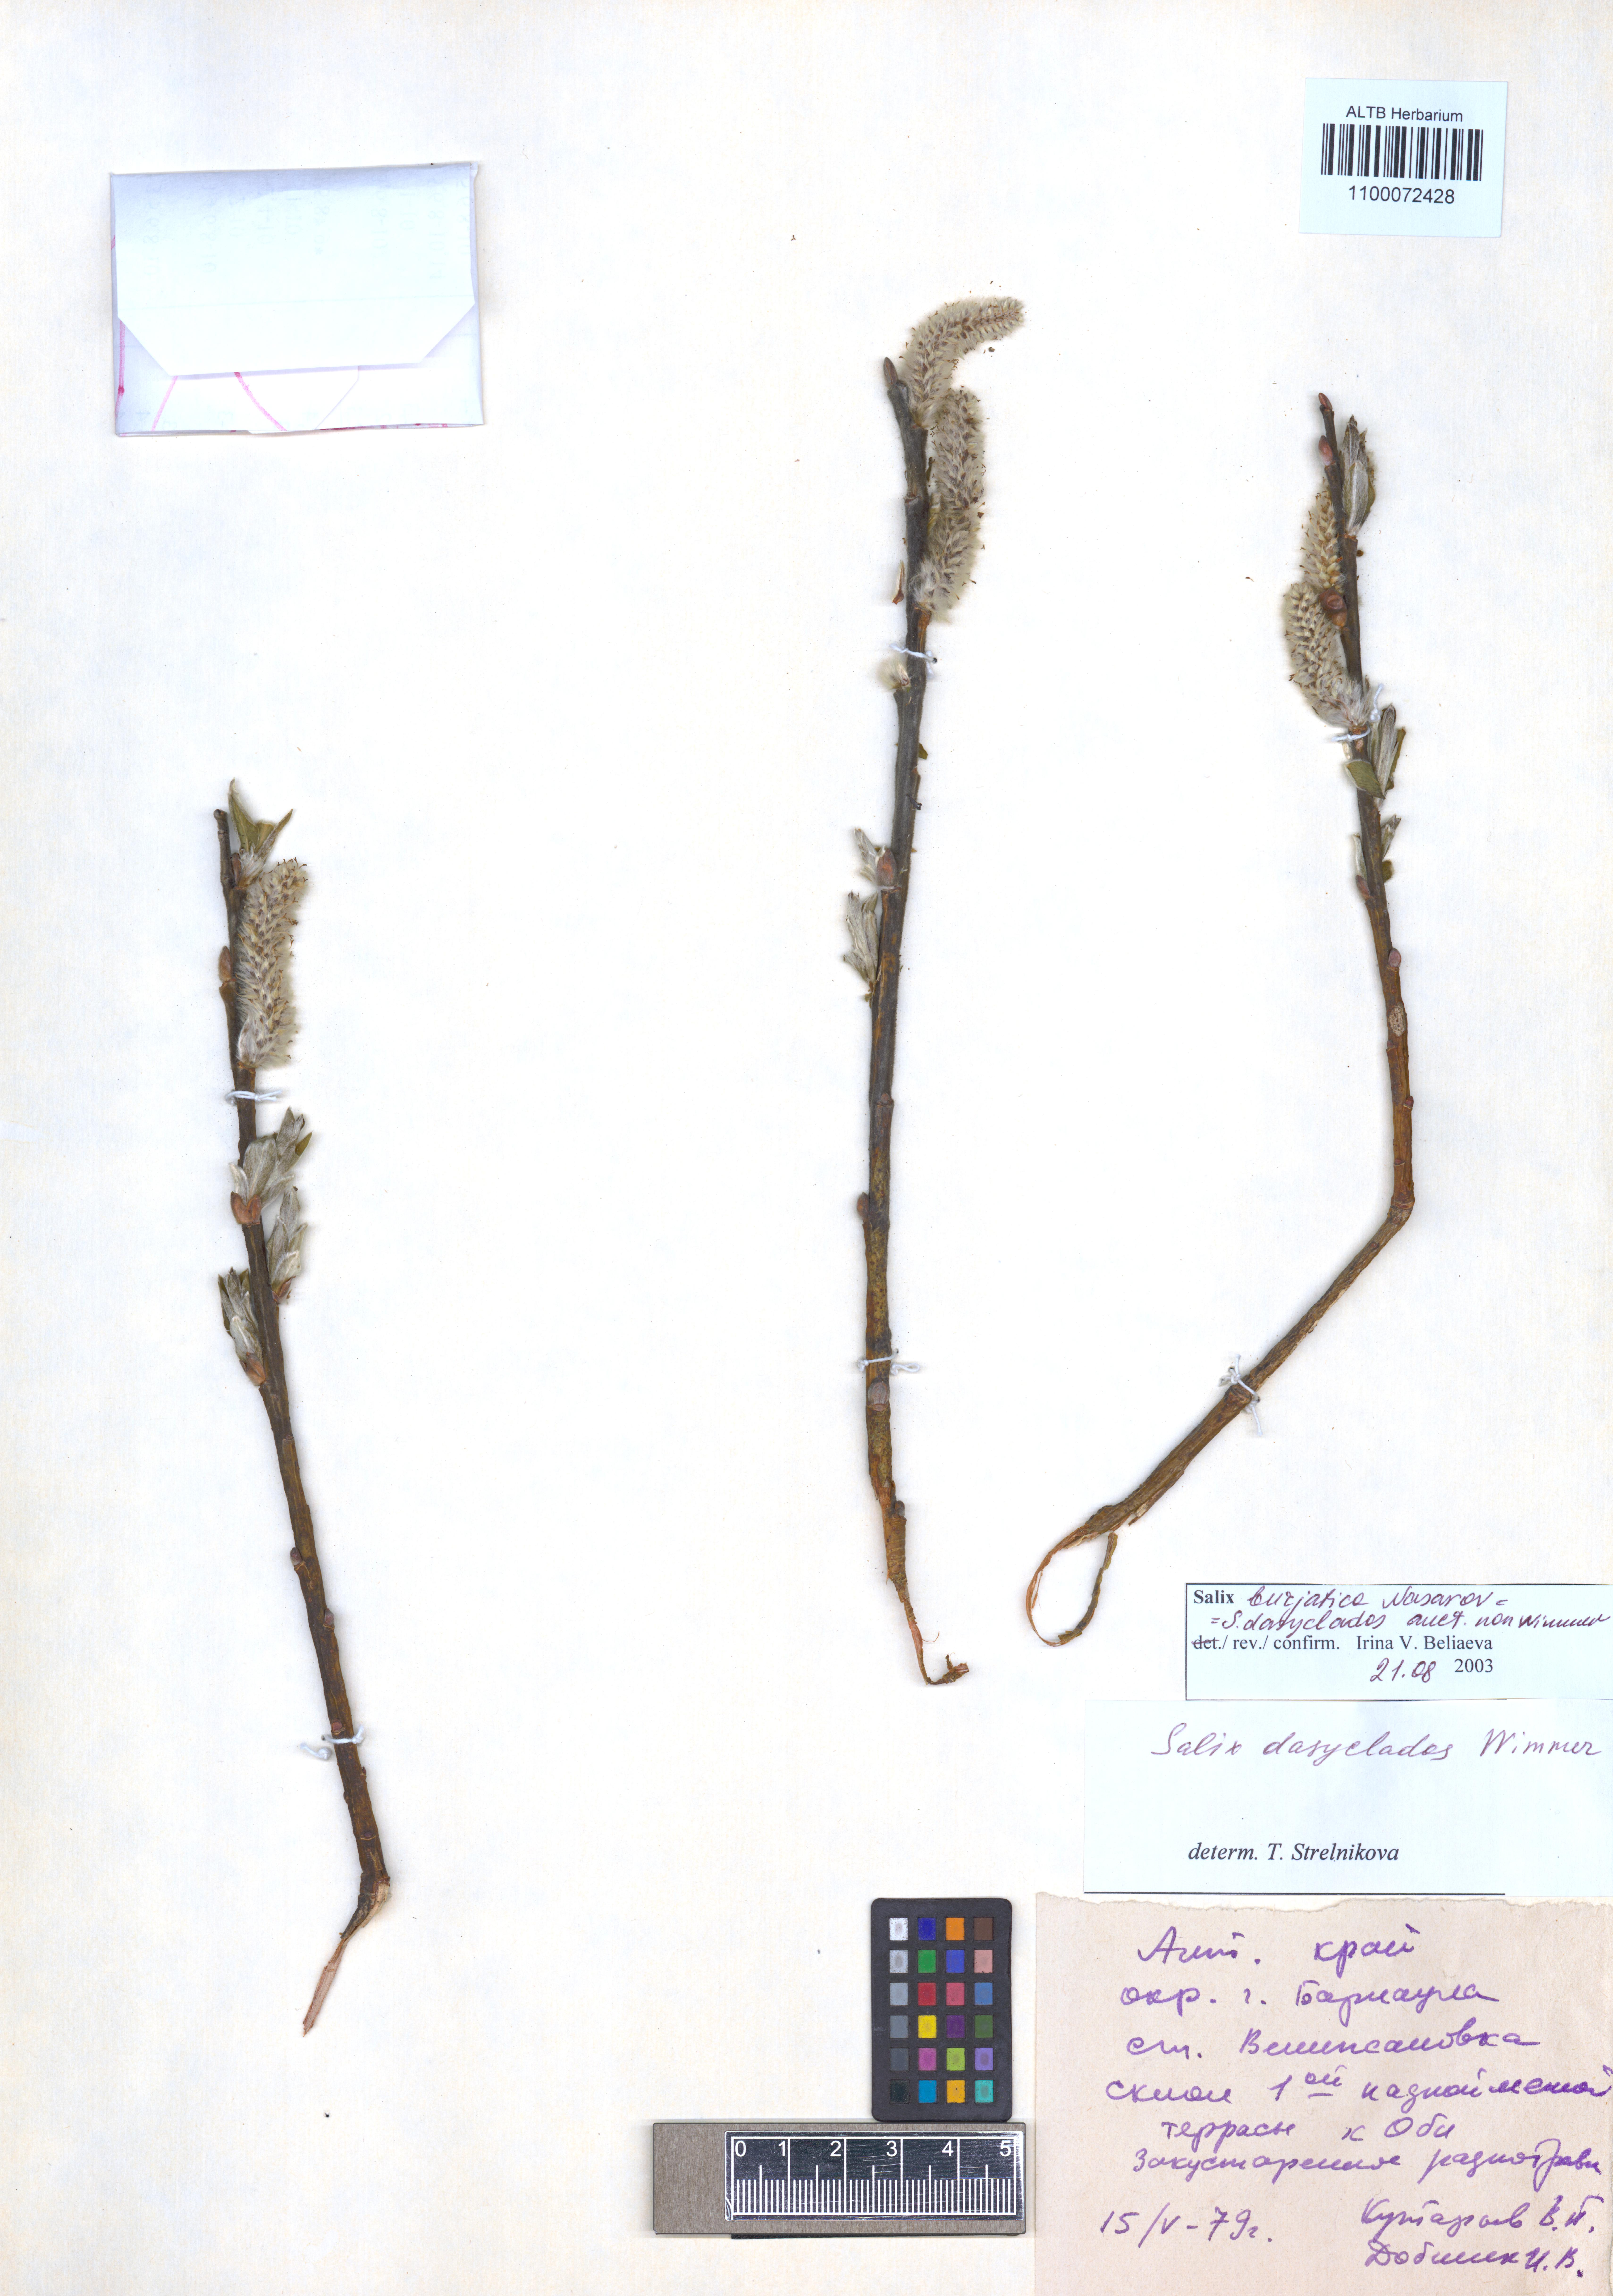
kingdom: Plantae
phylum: Tracheophyta
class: Magnoliopsida
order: Malpighiales
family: Salicaceae
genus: Salix
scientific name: Salix gmelinii
